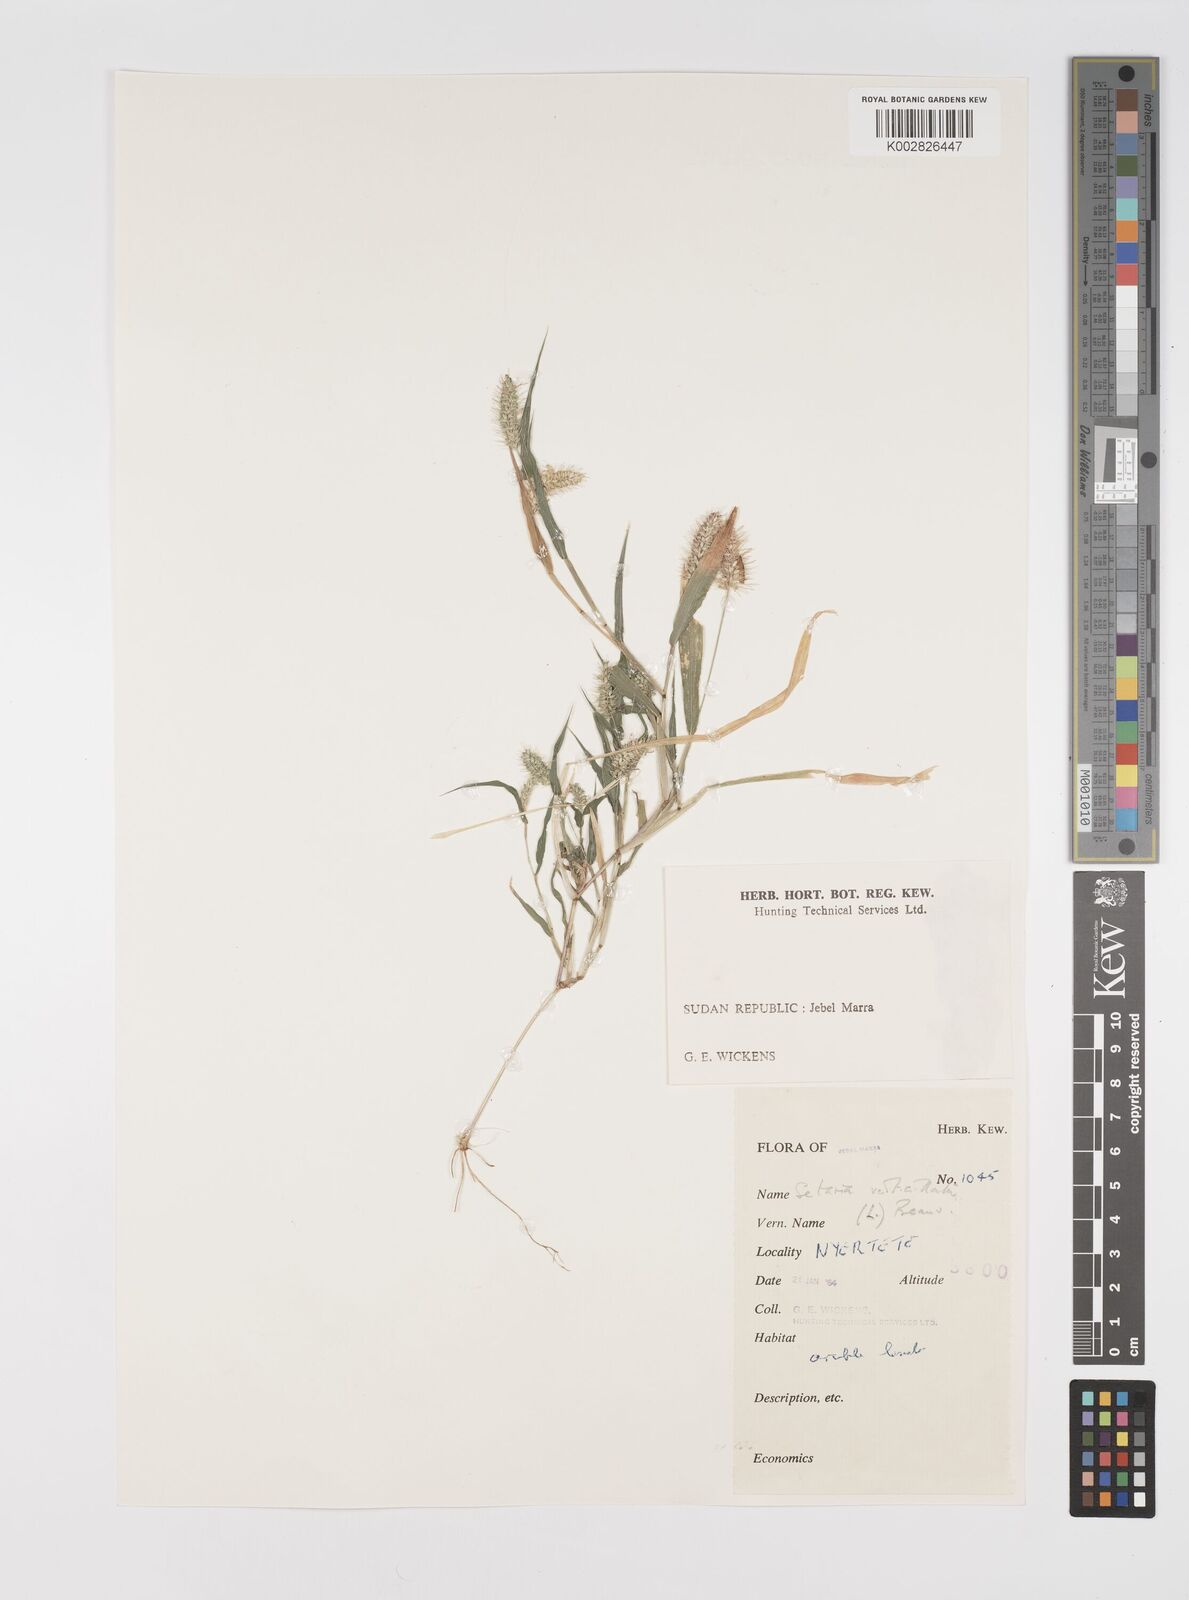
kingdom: Plantae
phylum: Tracheophyta
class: Liliopsida
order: Poales
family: Poaceae
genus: Setaria
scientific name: Setaria verticillata
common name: Hooked bristlegrass
